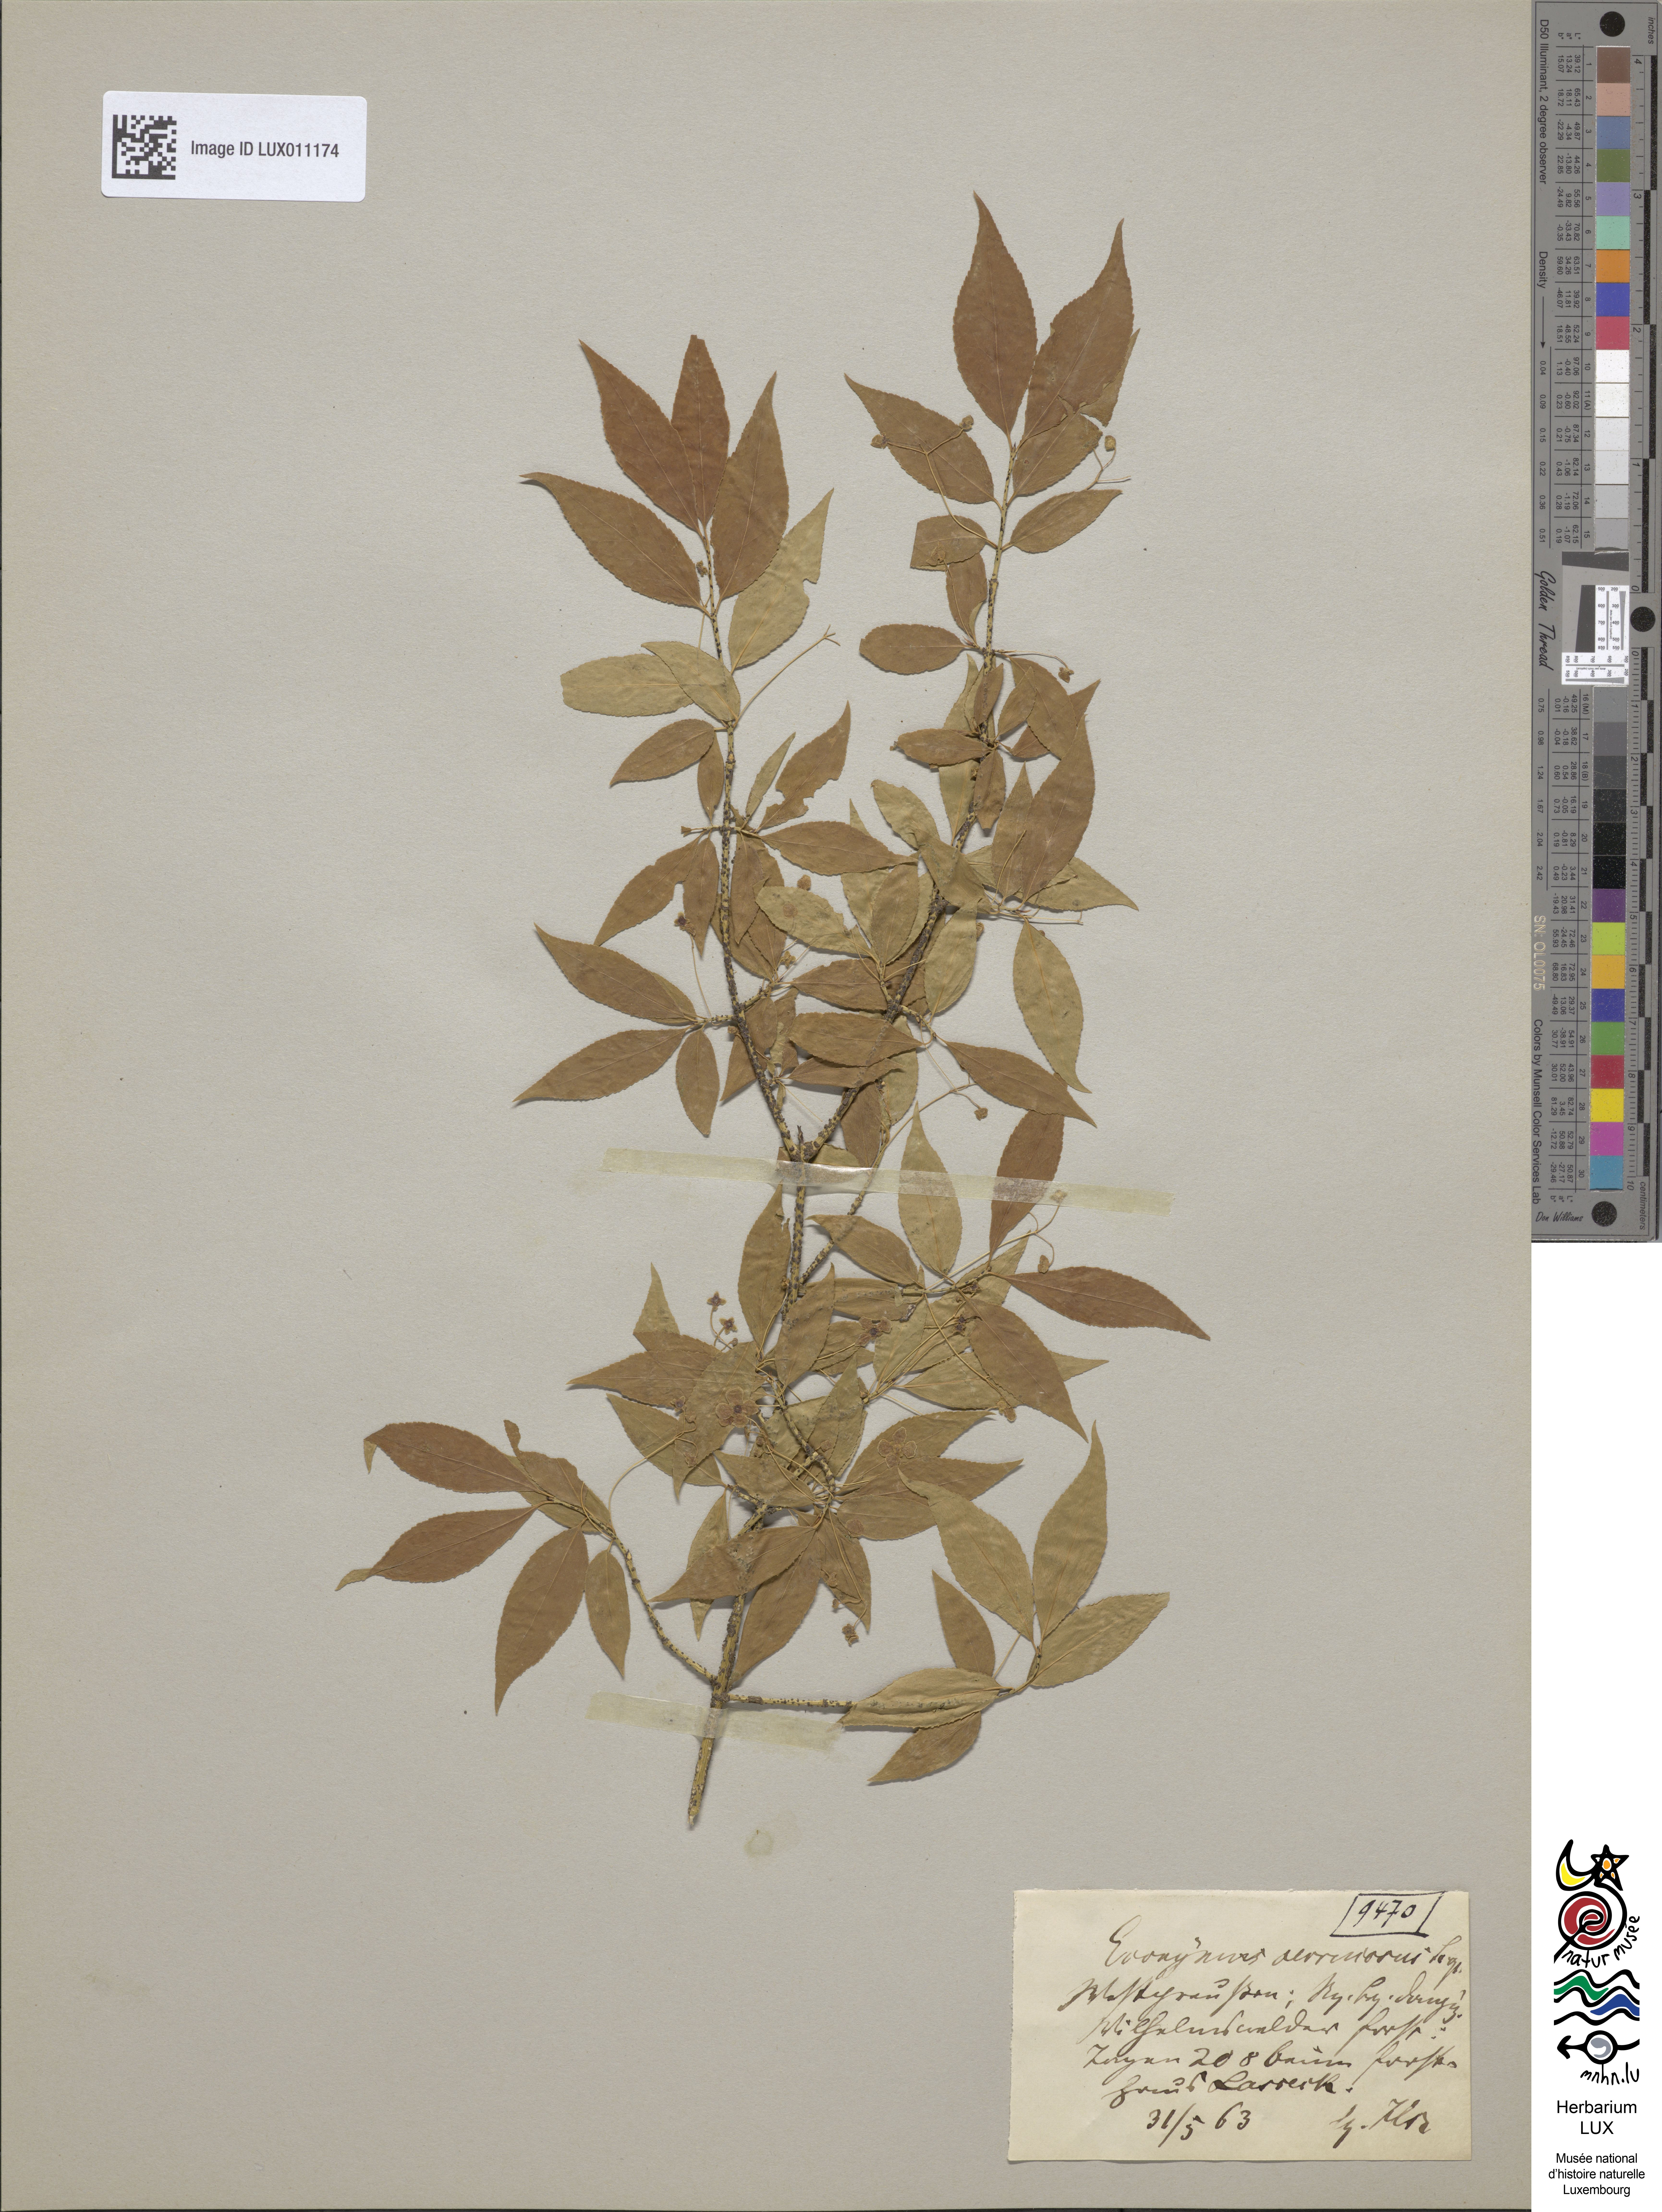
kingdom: Plantae
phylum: Tracheophyta
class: Magnoliopsida
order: Celastrales
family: Celastraceae
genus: Euonymus
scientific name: Euonymus verrucosus
